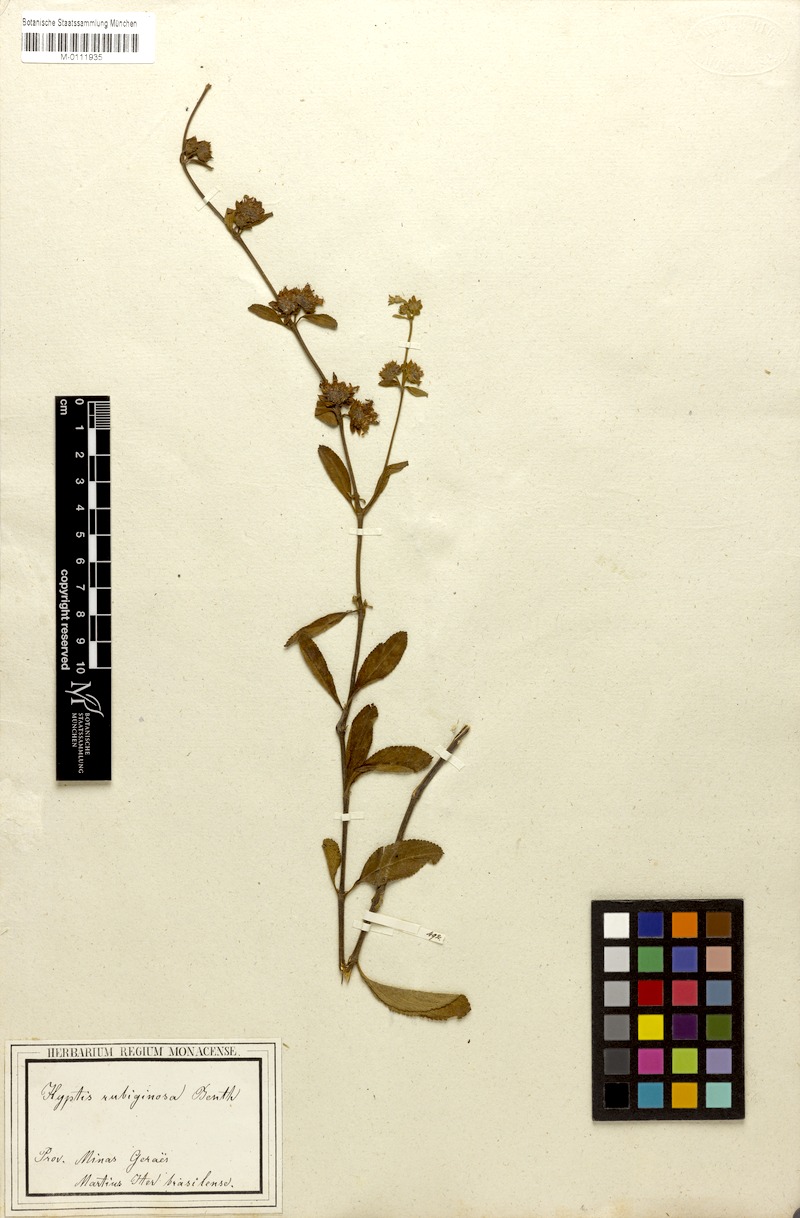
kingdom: Plantae
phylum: Tracheophyta
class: Magnoliopsida
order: Lamiales
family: Lamiaceae
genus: Hyptis
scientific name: Hyptis rubiginosa
